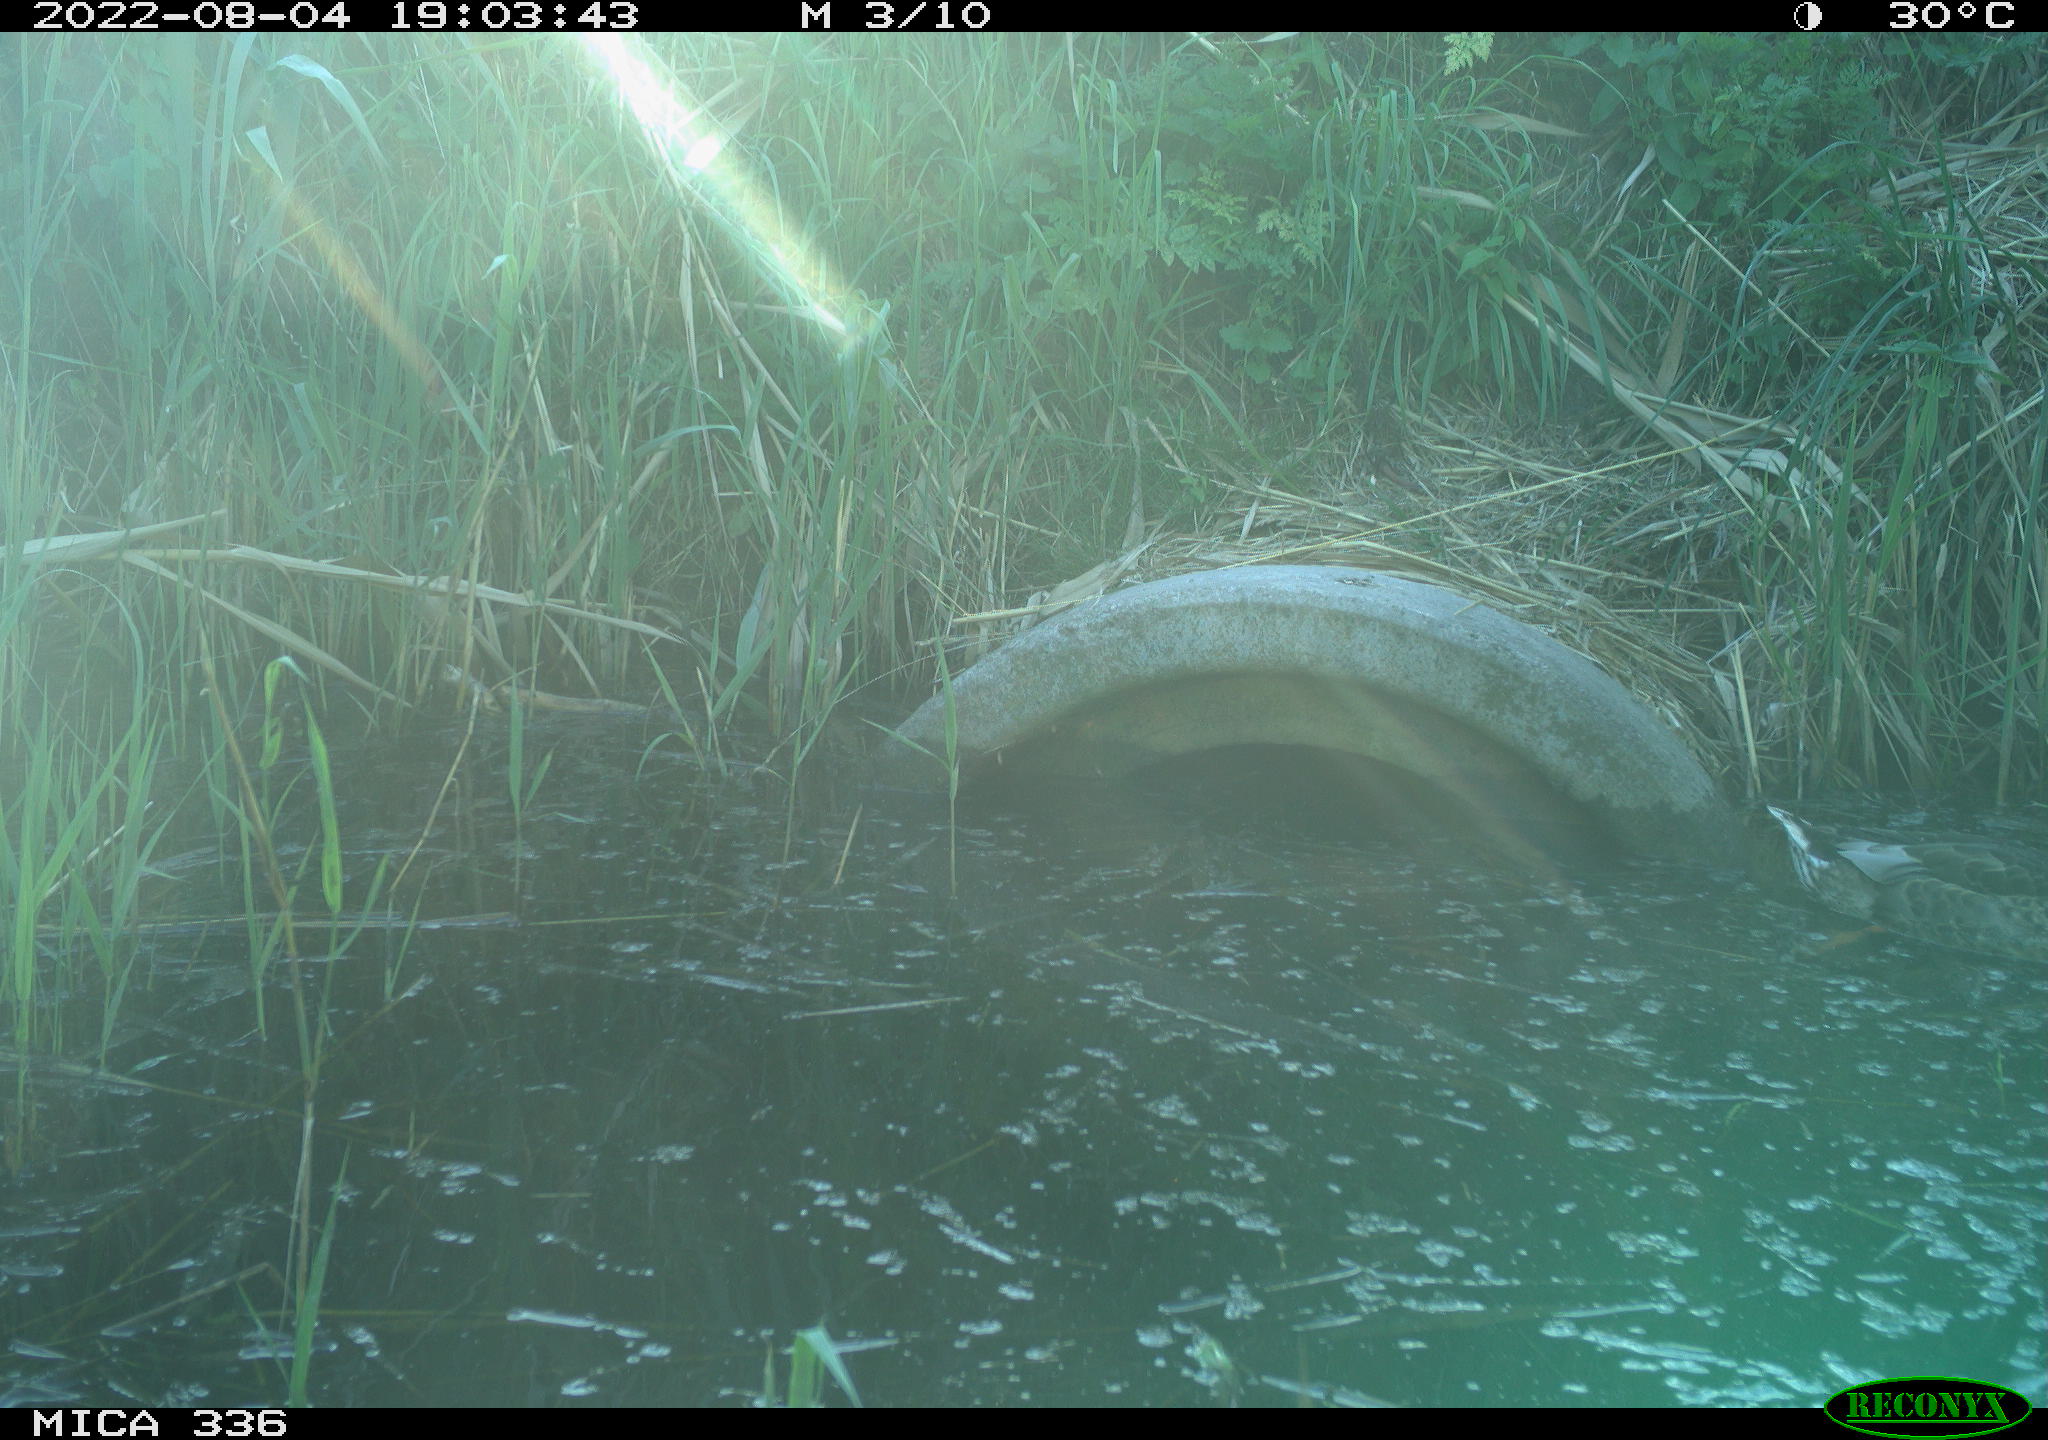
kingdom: Animalia
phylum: Chordata
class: Aves
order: Anseriformes
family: Anatidae
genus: Anas
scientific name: Anas platyrhynchos
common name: Mallard
